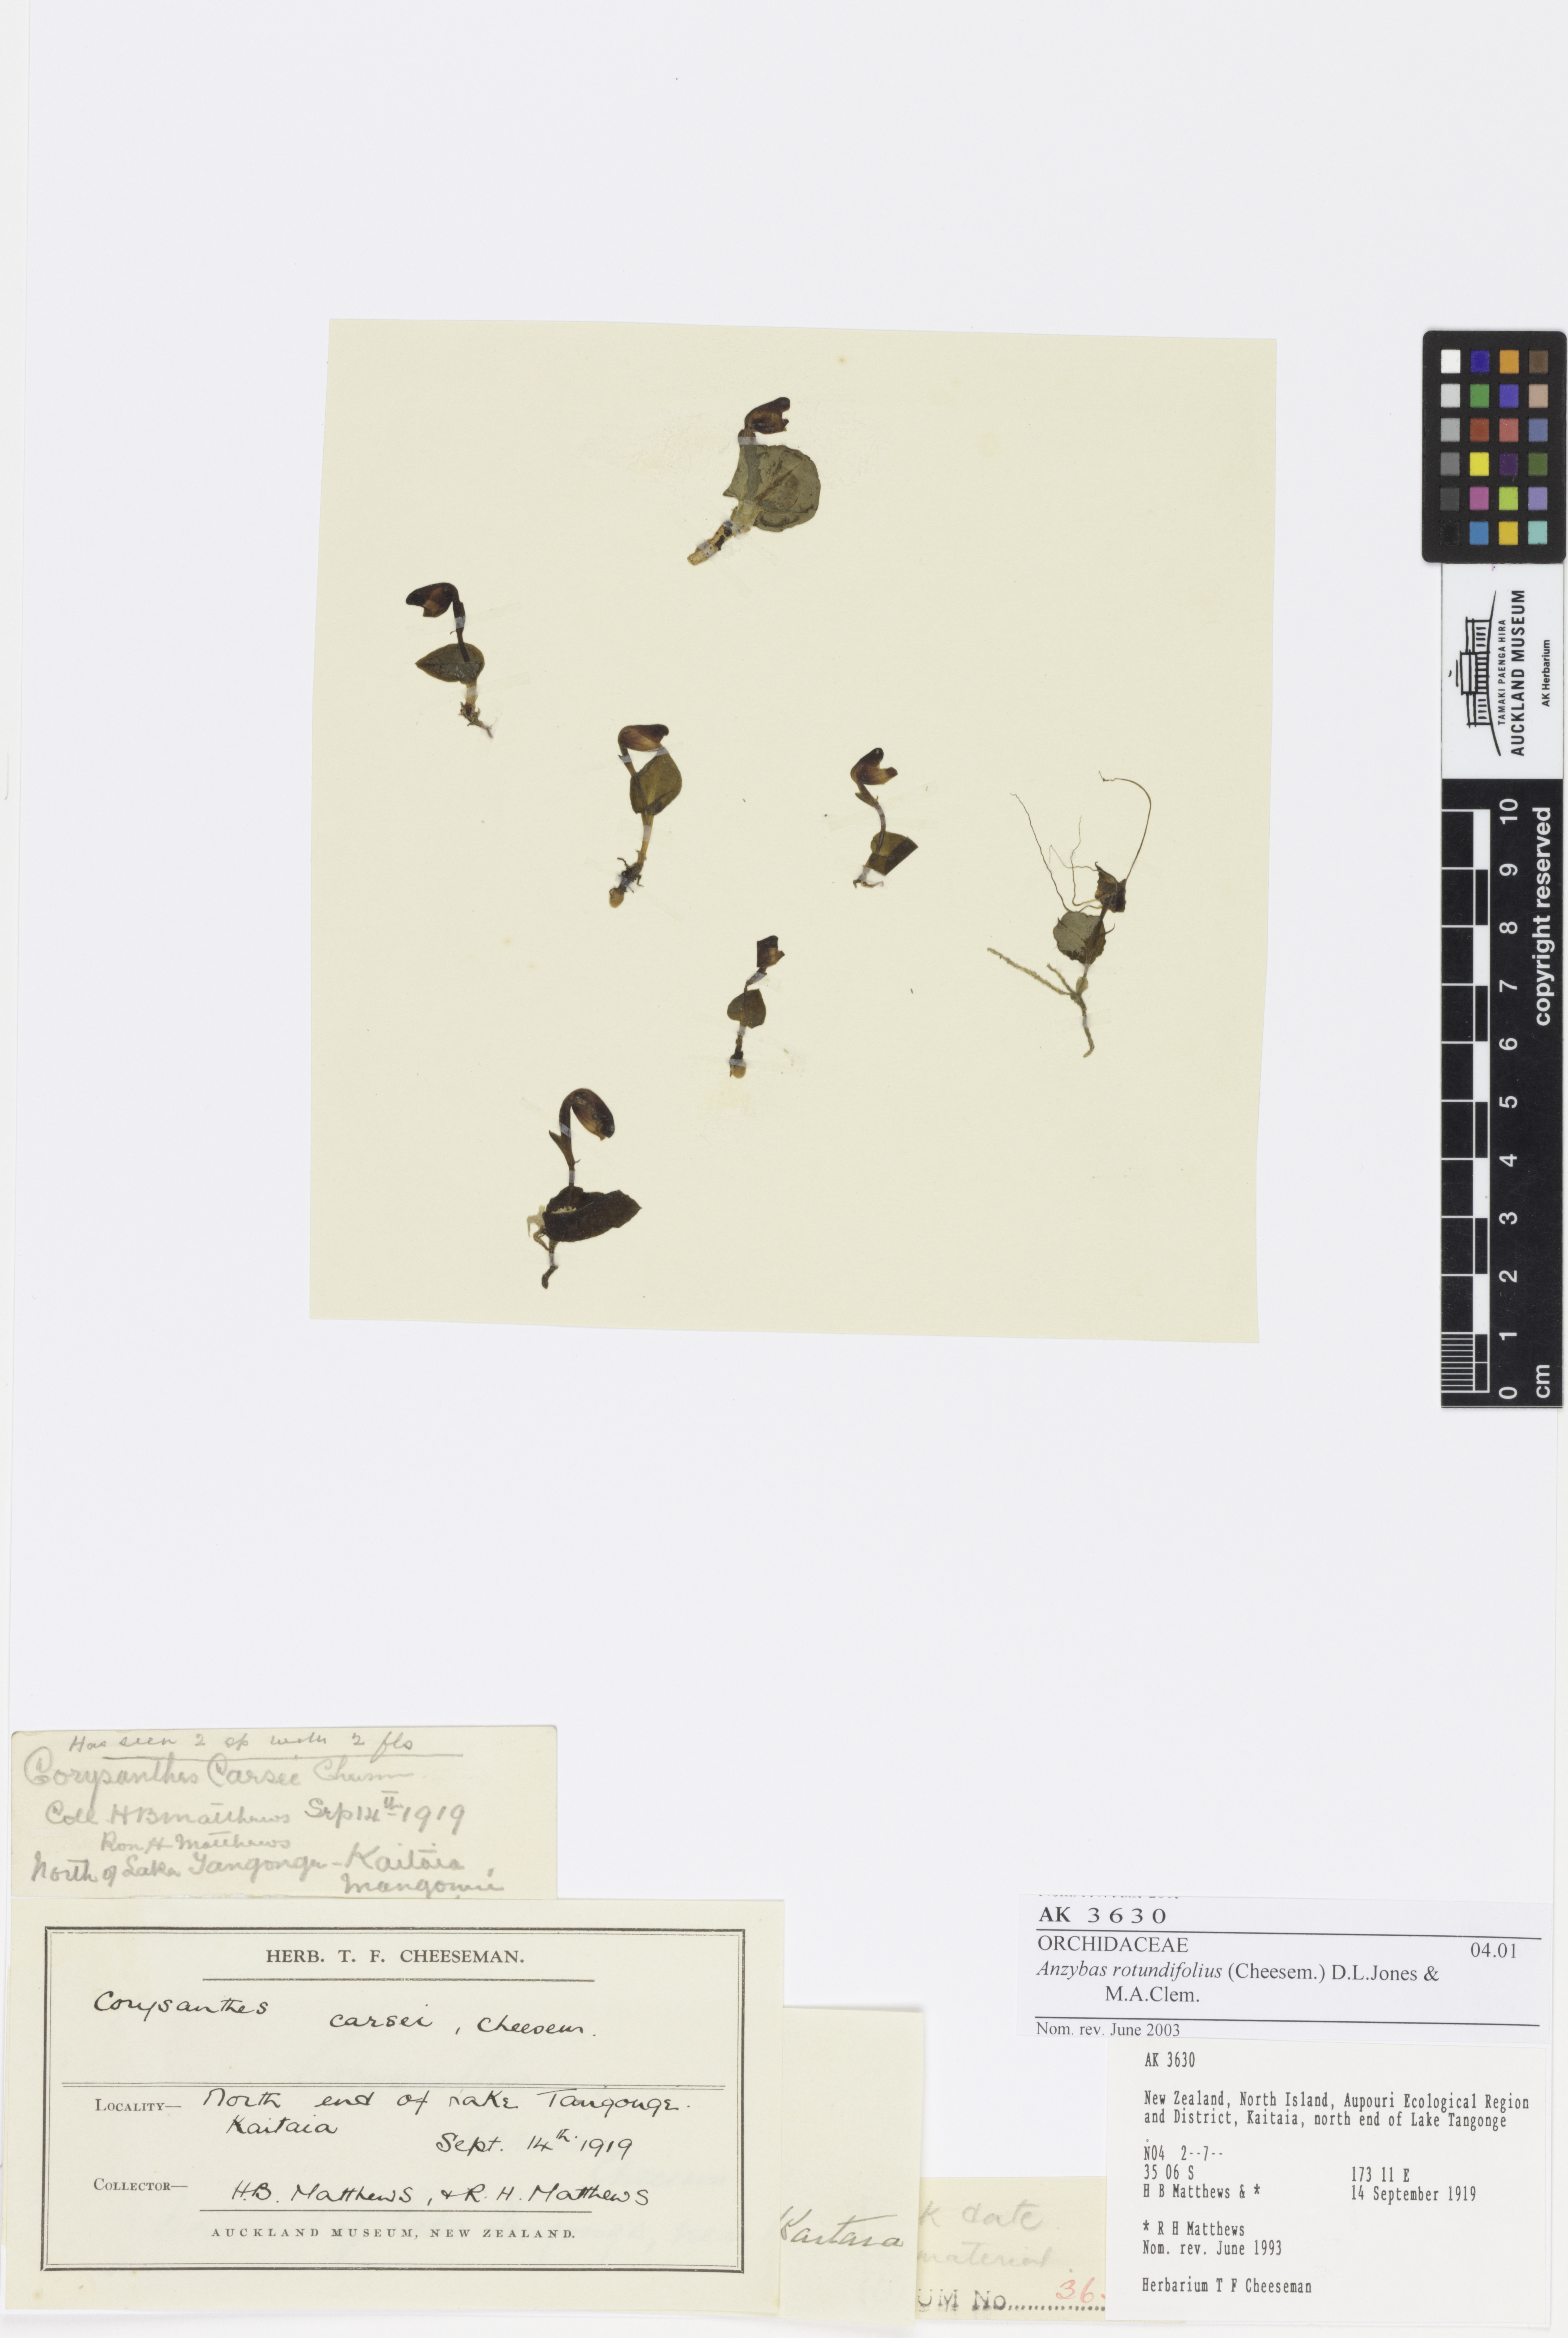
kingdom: Plantae
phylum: Tracheophyta
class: Liliopsida
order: Asparagales
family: Orchidaceae
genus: Corybas
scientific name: Corybas rotundifolius
